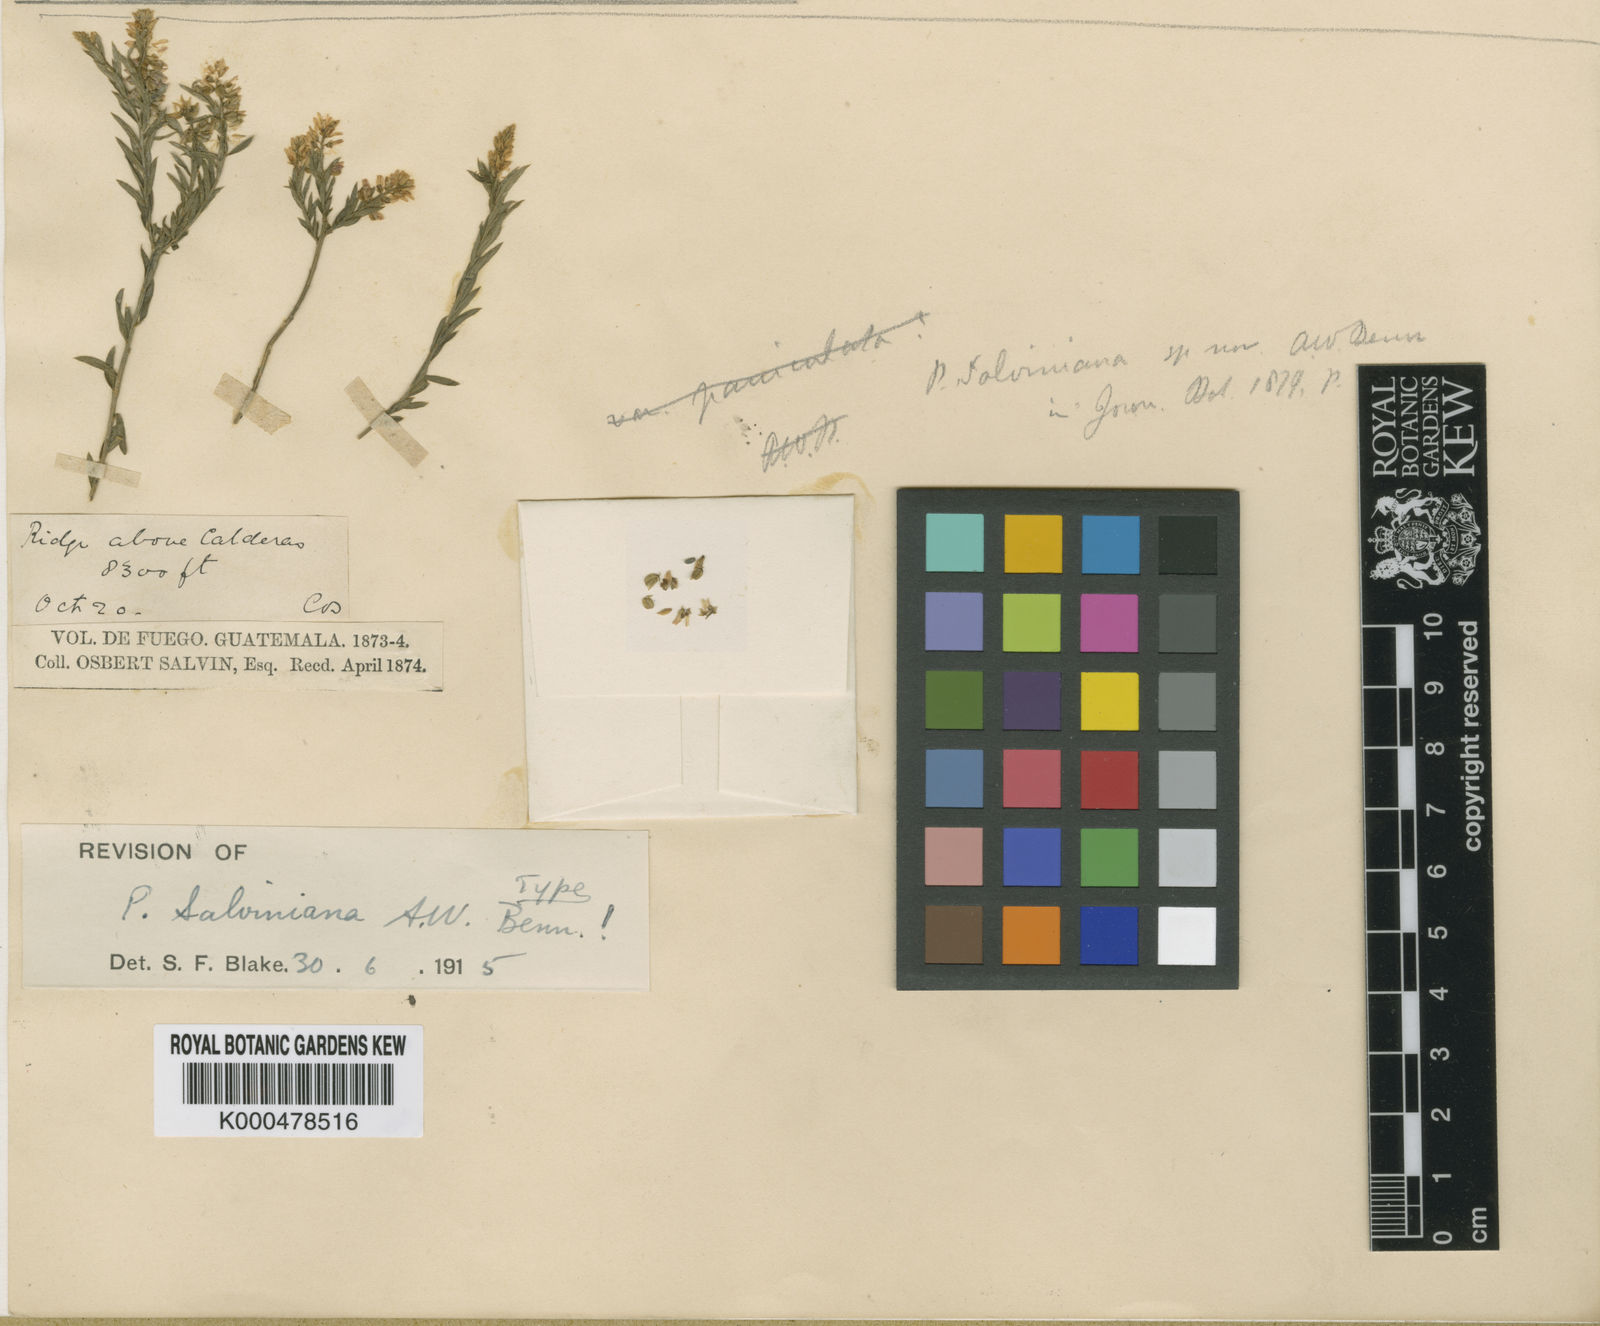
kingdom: Plantae
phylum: Tracheophyta
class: Magnoliopsida
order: Fabales
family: Polygalaceae
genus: Polygala
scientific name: Polygala salviniana
